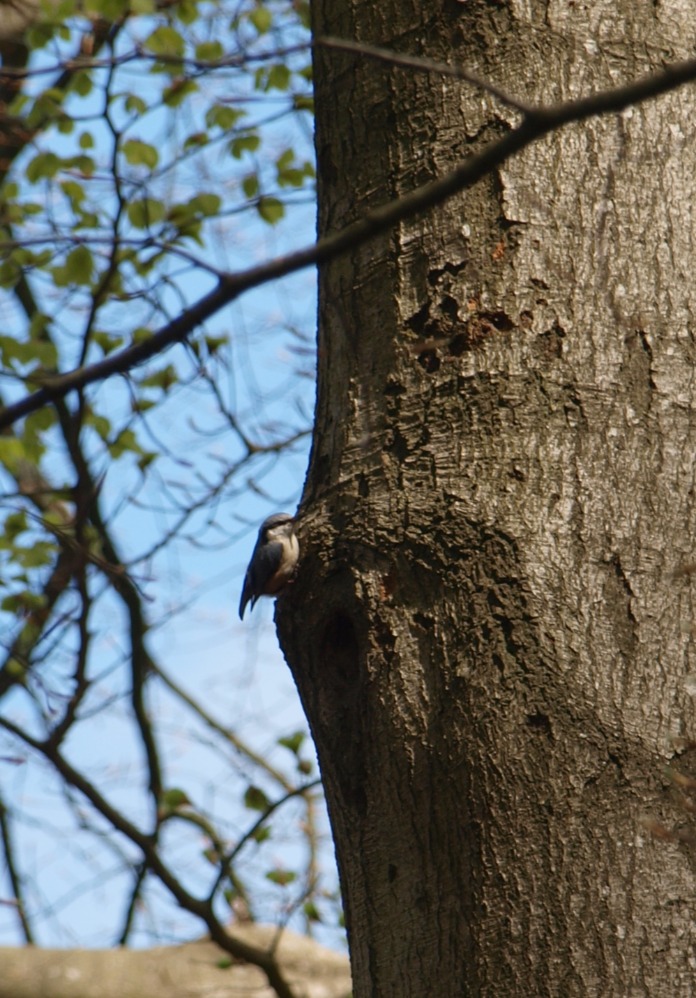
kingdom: Animalia
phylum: Chordata
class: Aves
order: Passeriformes
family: Sittidae
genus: Sitta
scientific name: Sitta europaea
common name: Spætmejse
